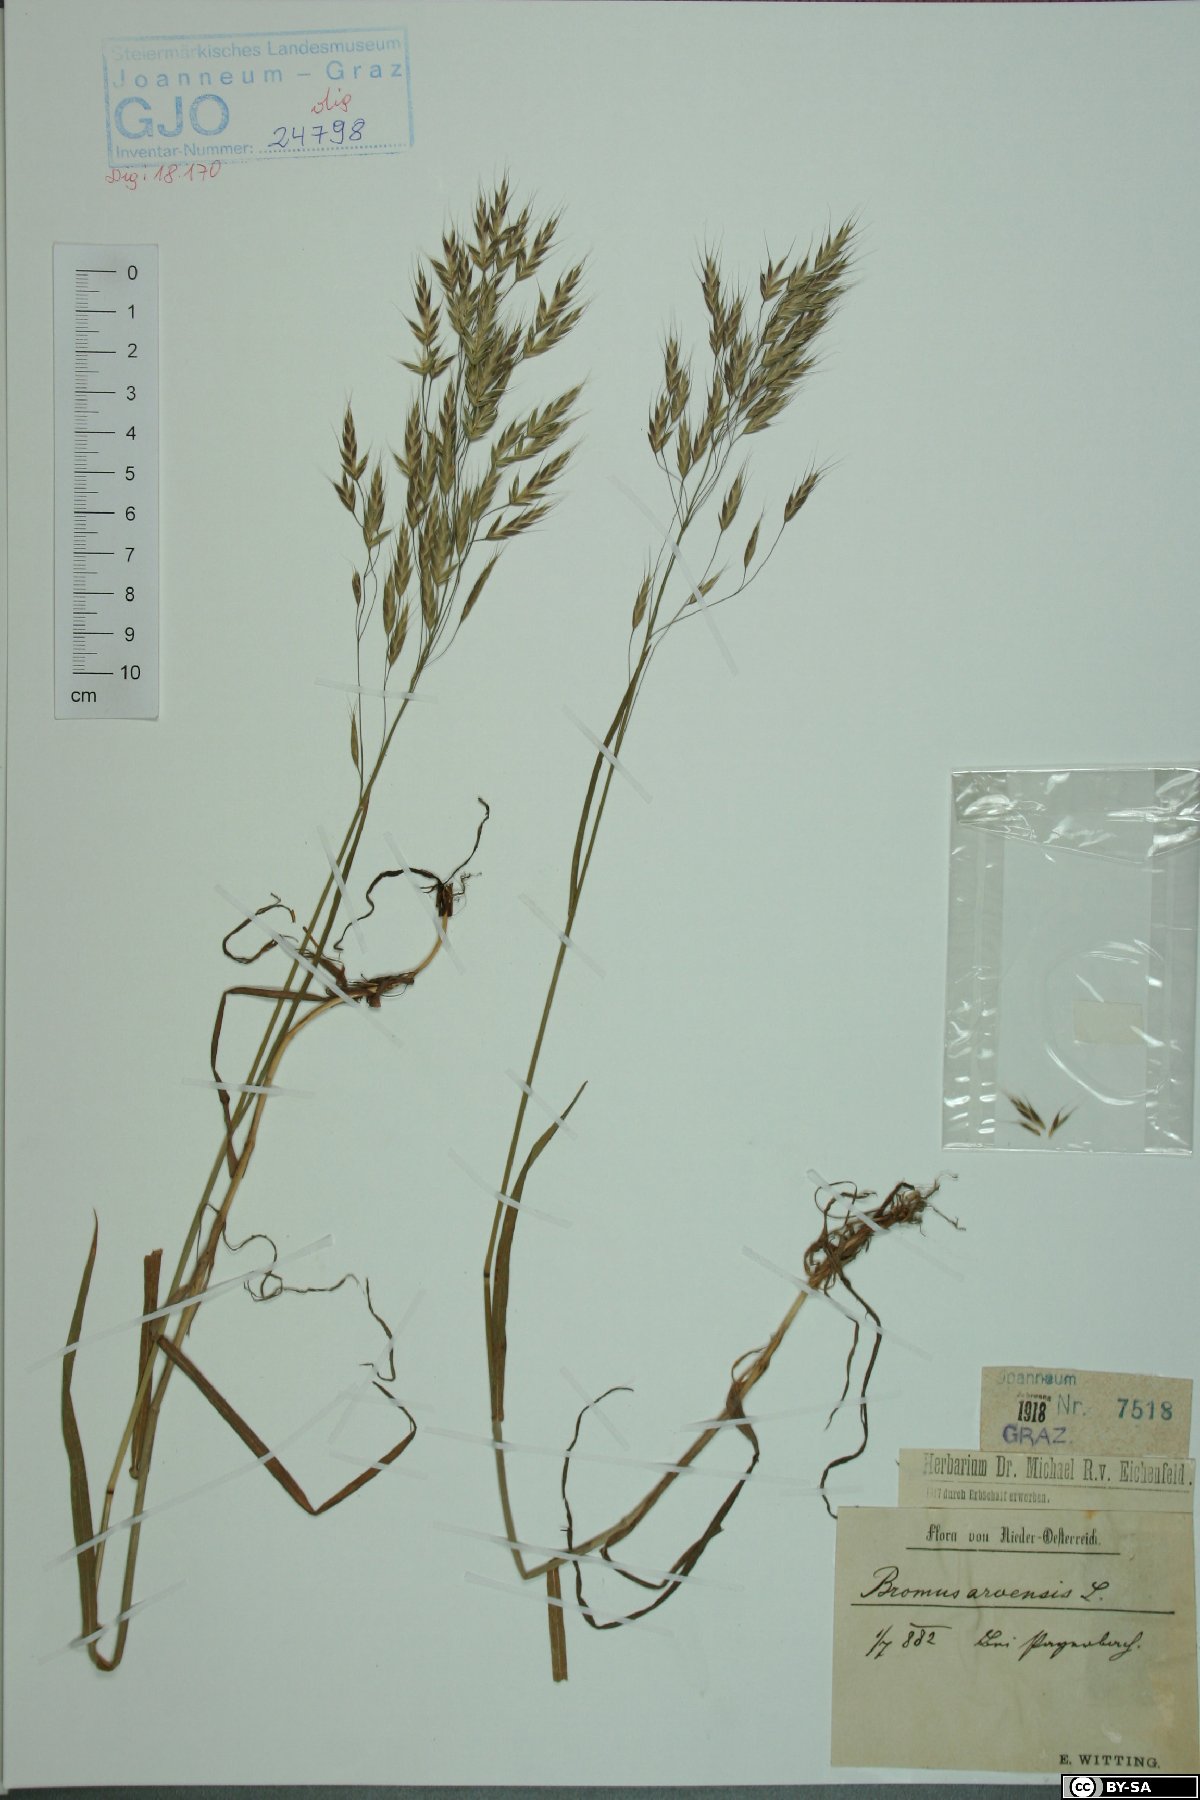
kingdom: Plantae
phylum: Tracheophyta
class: Liliopsida
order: Poales
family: Poaceae
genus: Bromus
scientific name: Bromus arvensis
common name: Field brome
